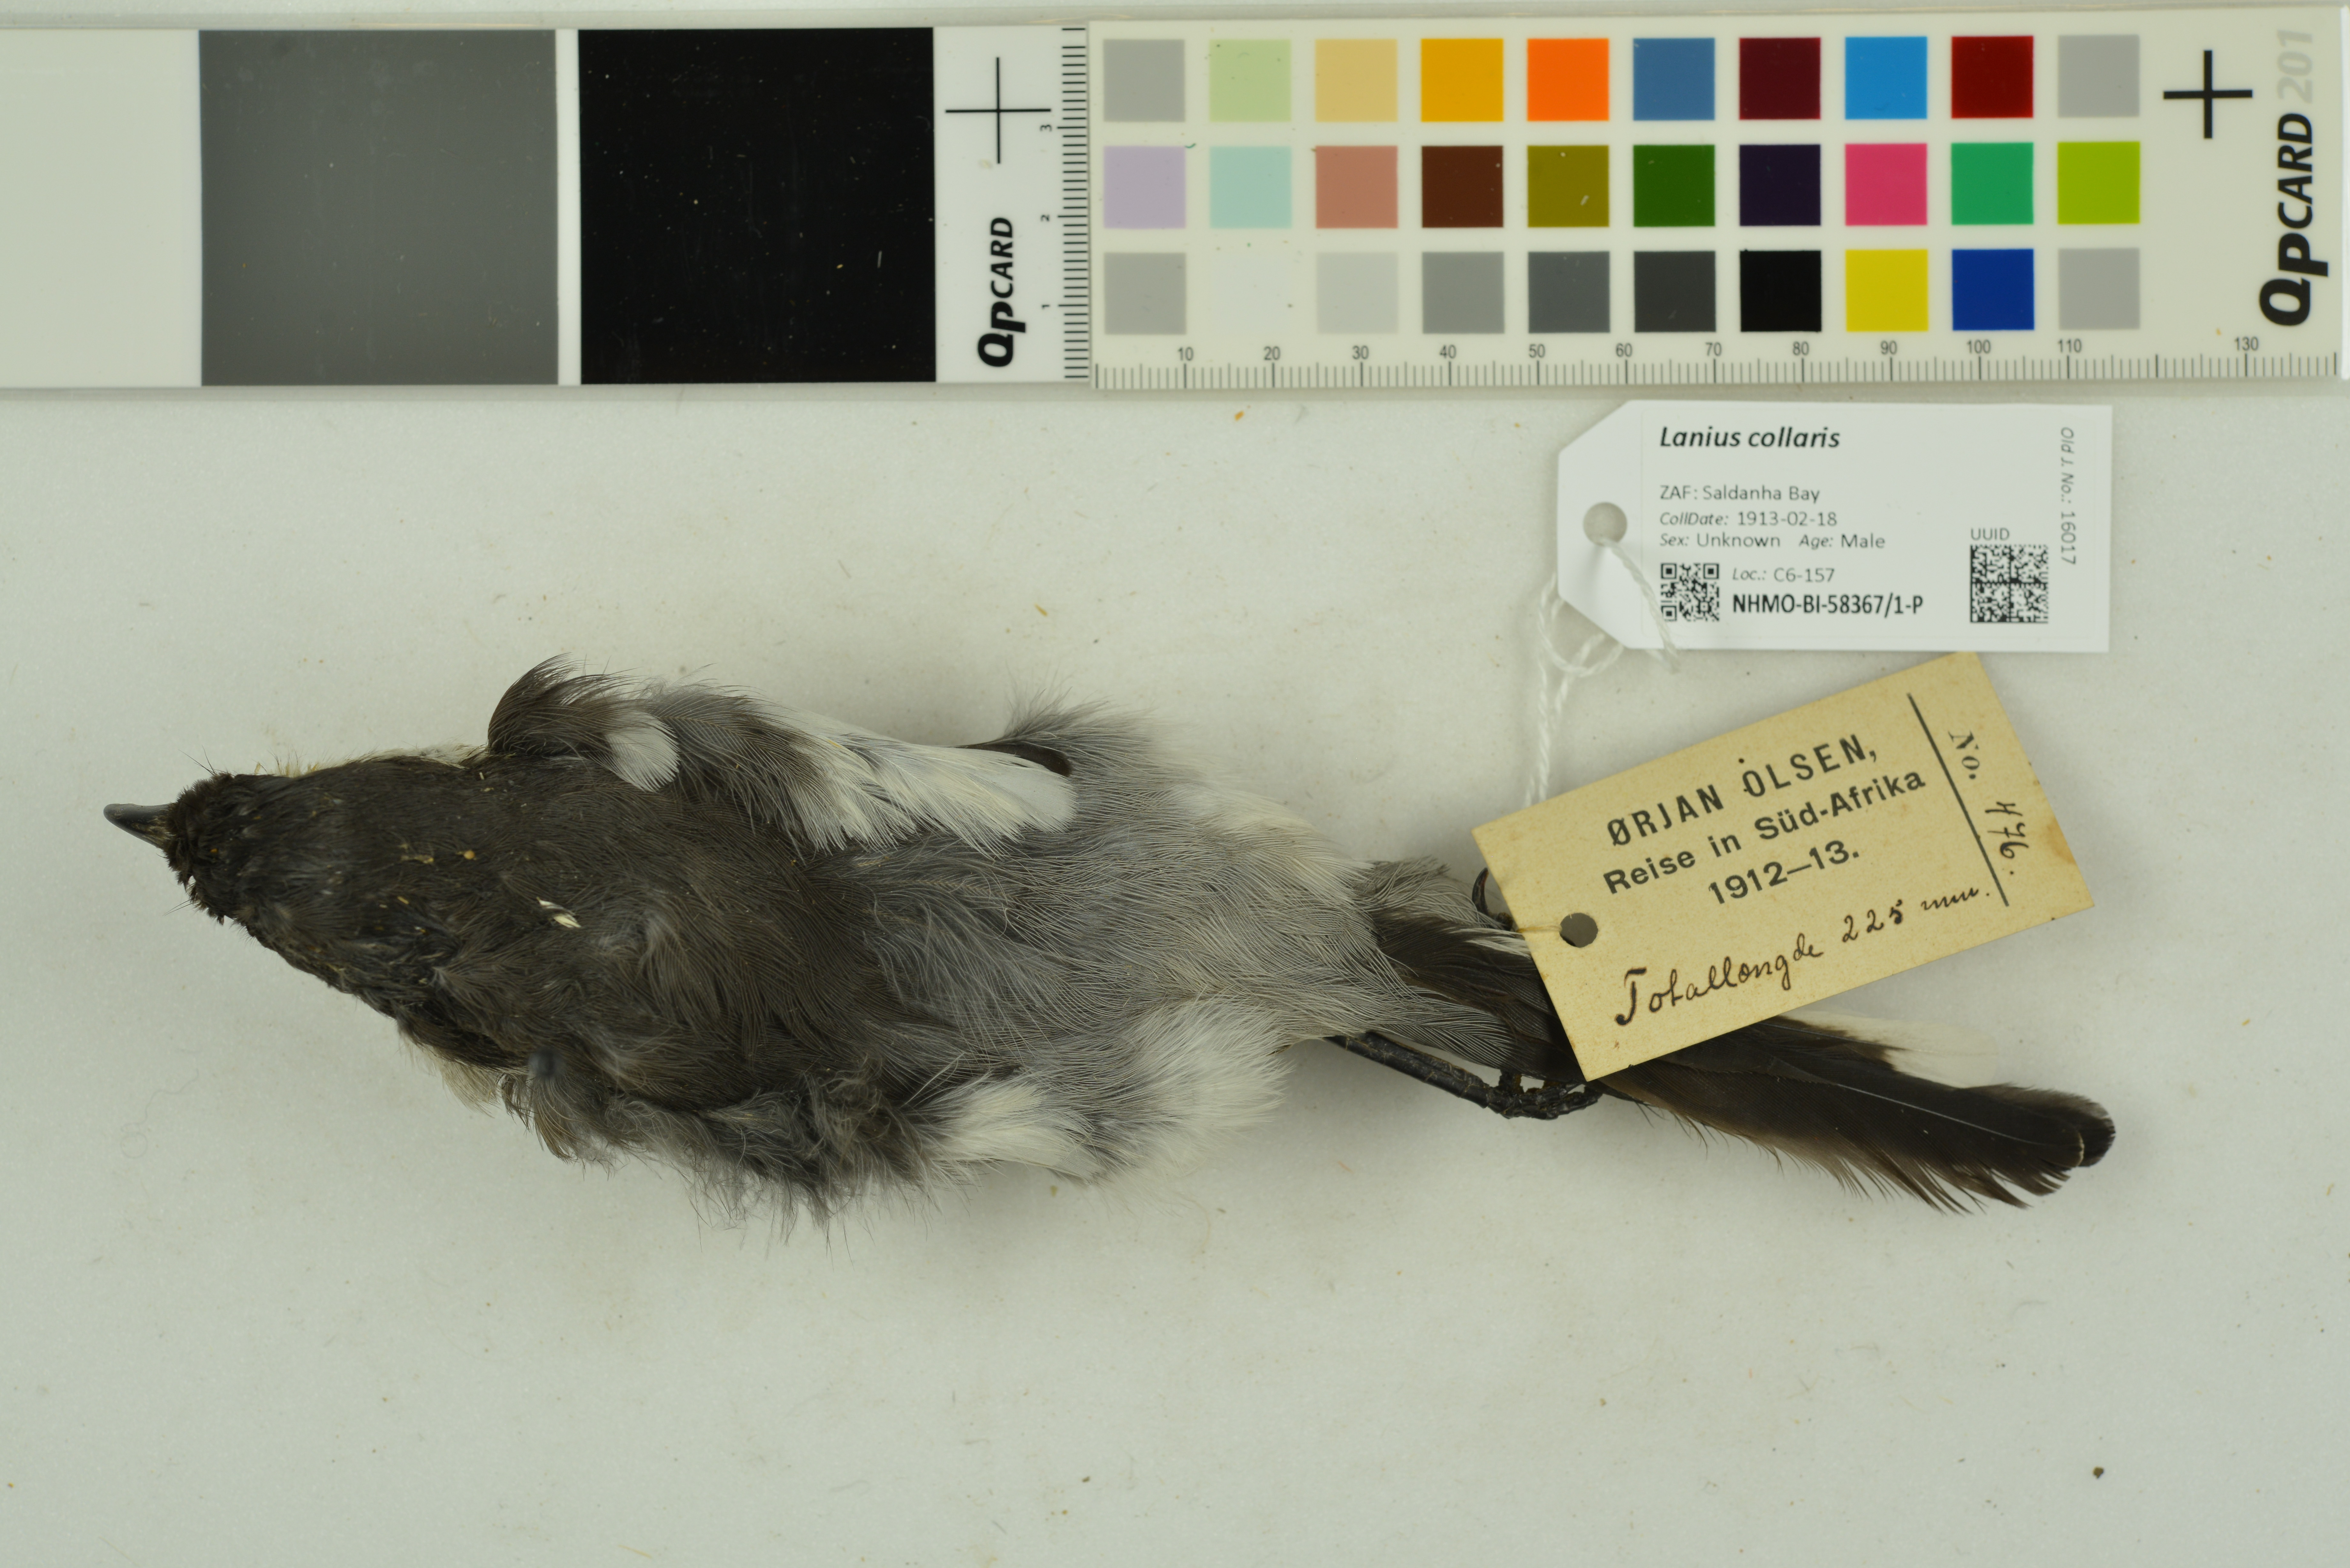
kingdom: Animalia
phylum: Chordata
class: Aves
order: Passeriformes
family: Laniidae
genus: Lanius
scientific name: Lanius collaris
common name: Southern fiscal
